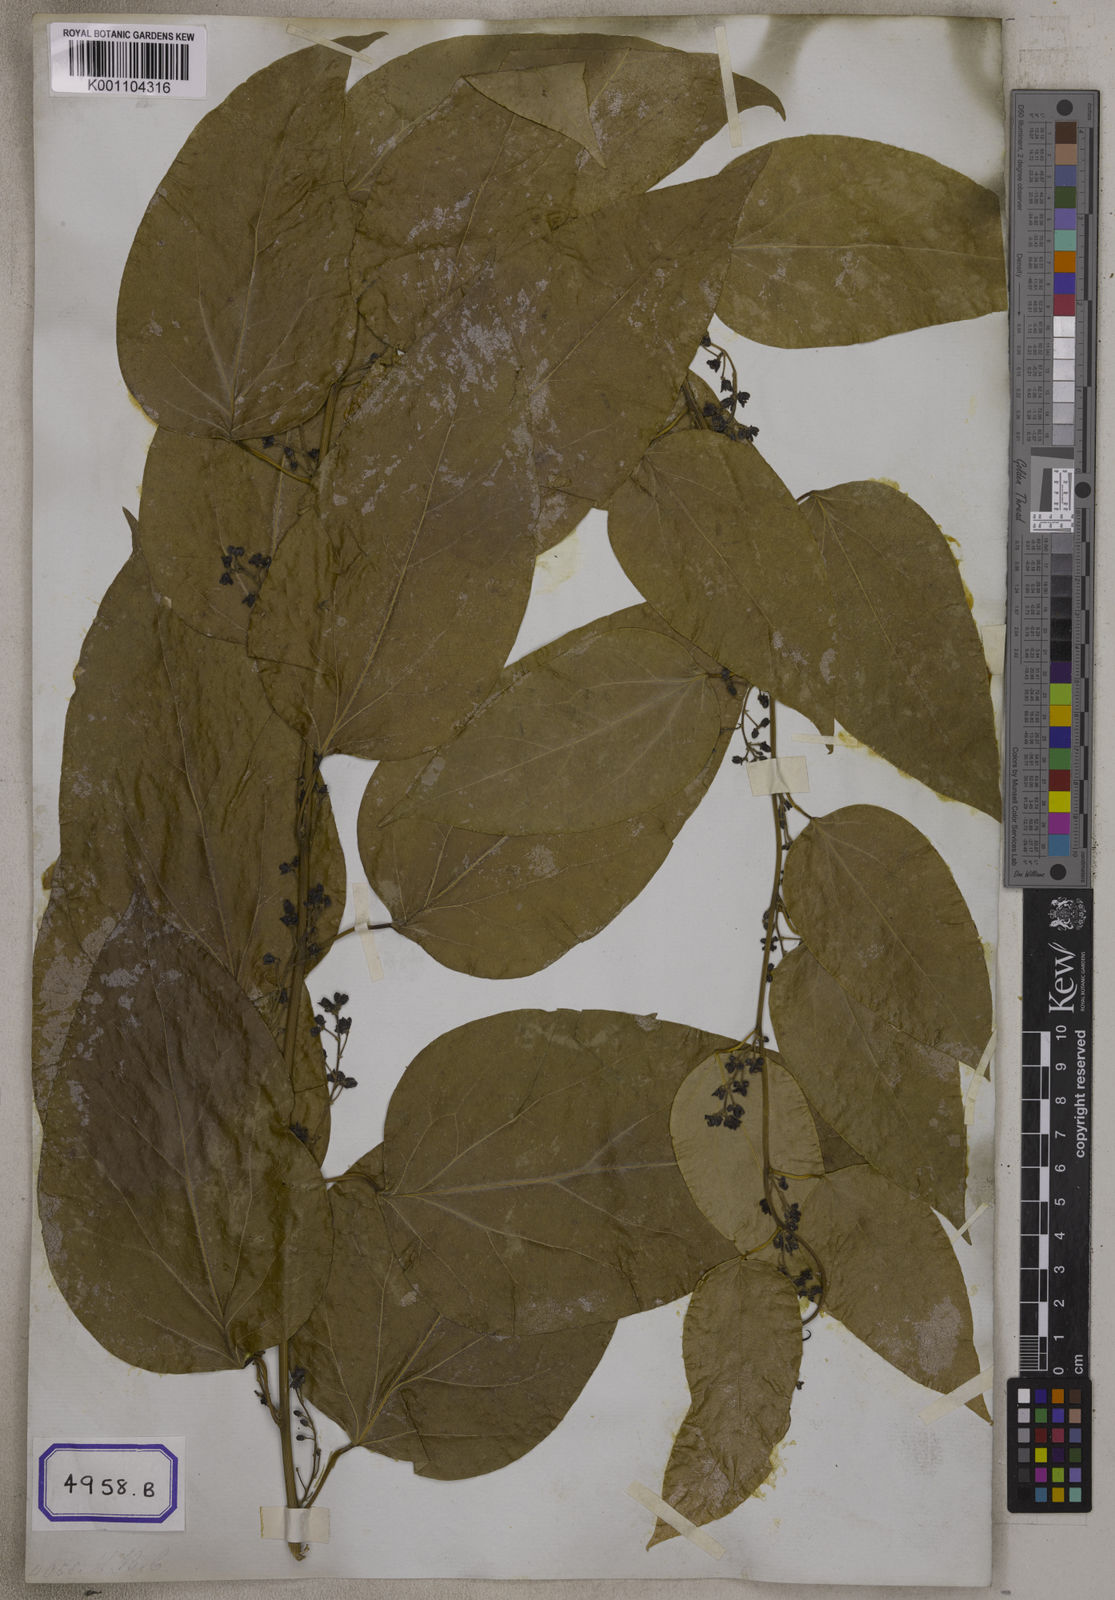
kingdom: Plantae
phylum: Tracheophyta
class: Magnoliopsida
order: Ranunculales
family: Menispermaceae
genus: Cocculus
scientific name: Cocculus
